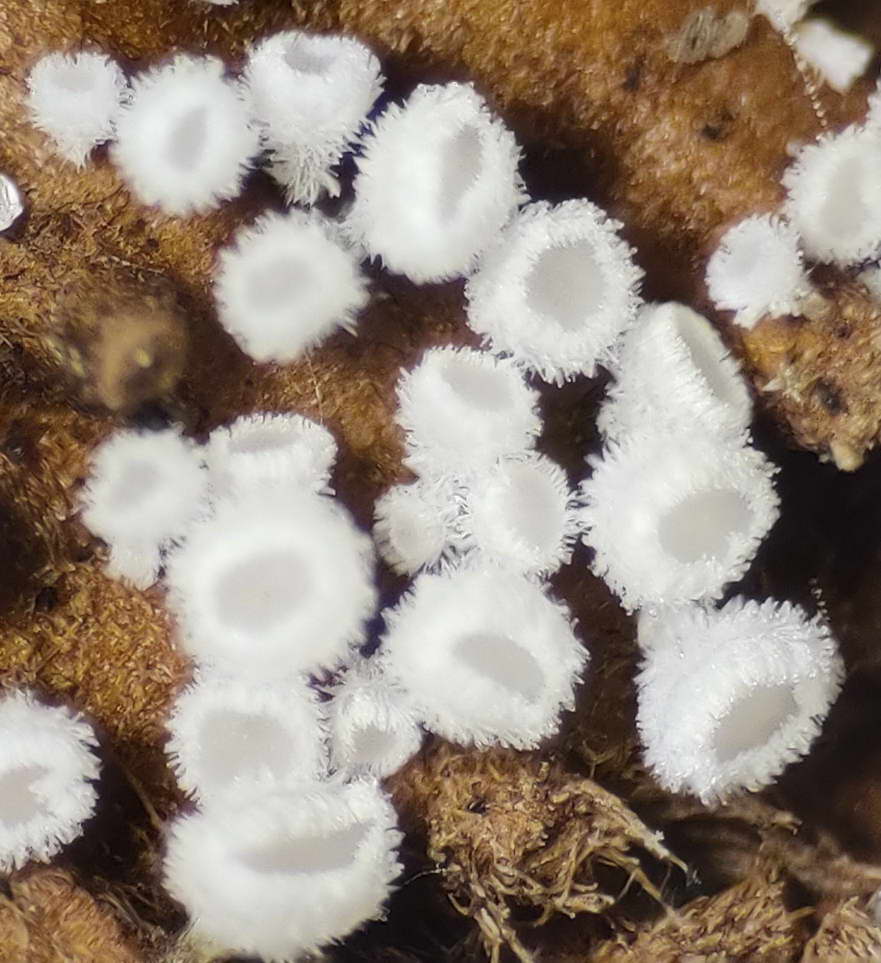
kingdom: Fungi
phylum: Ascomycota
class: Leotiomycetes
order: Helotiales
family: Lachnaceae
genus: Lachnum
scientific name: Lachnum virgineum
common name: jomfru-frynseskive
